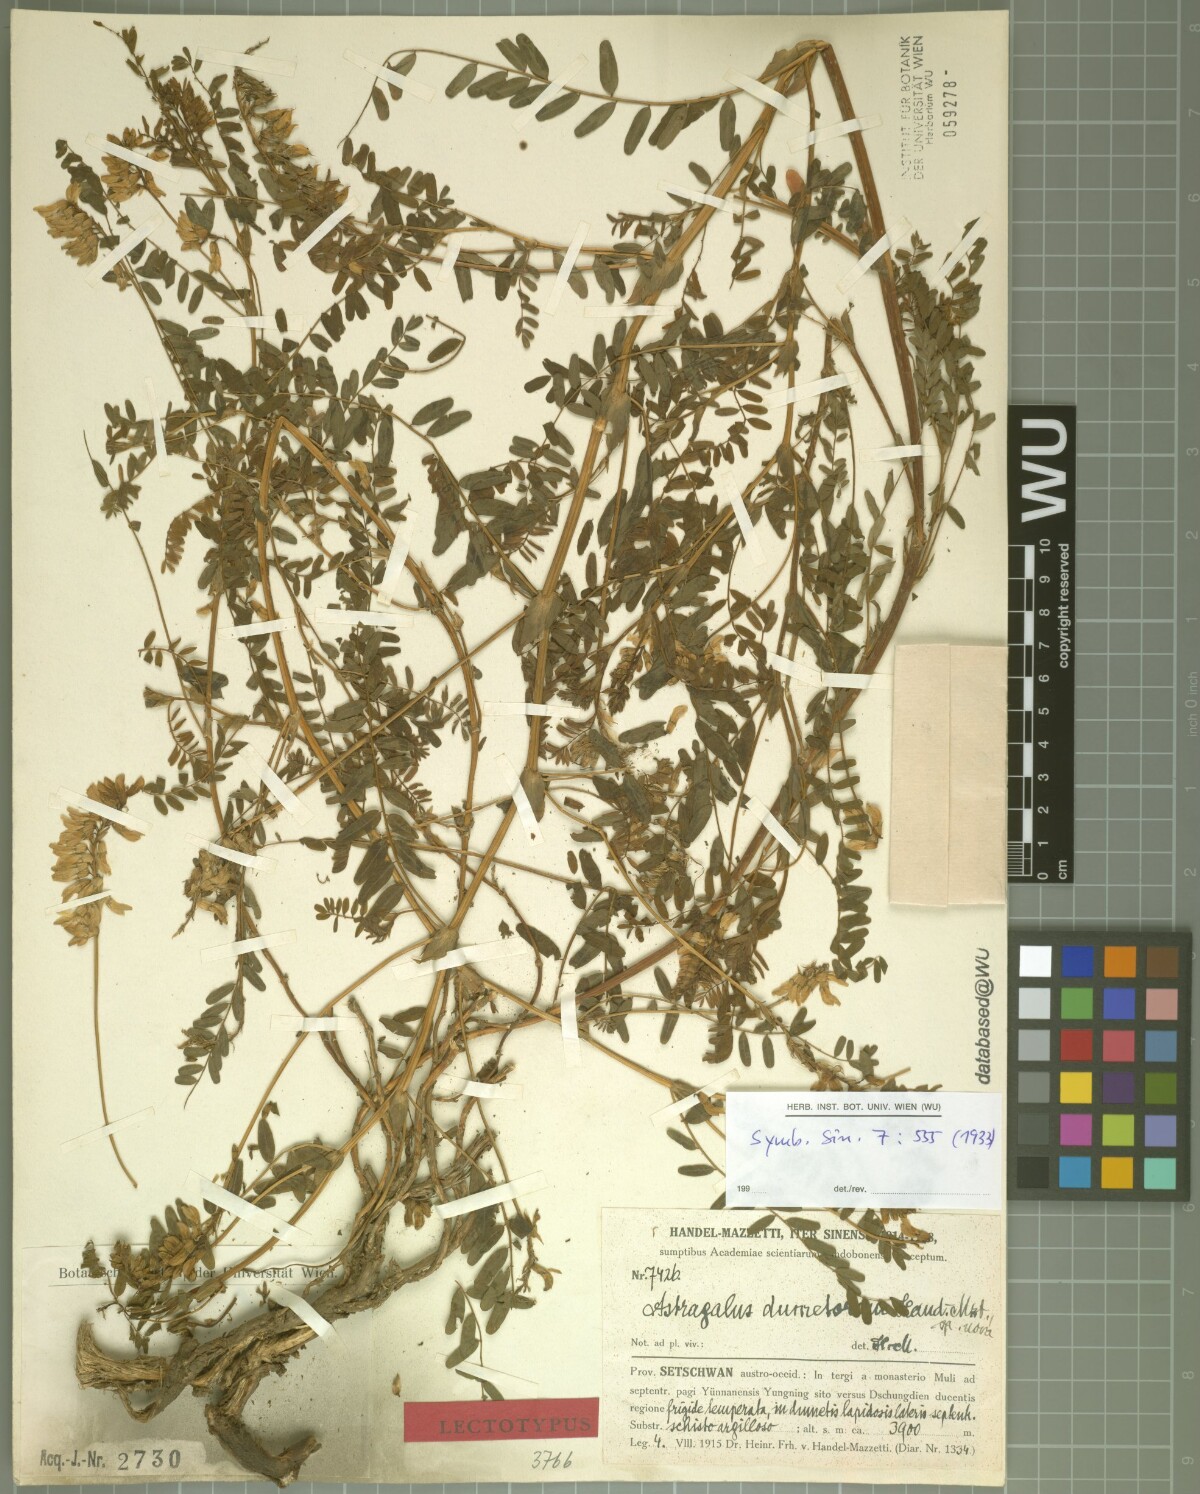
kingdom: Plantae
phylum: Tracheophyta
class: Magnoliopsida
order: Fabales
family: Fabaceae
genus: Astragalus
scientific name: Astragalus dumetorum
